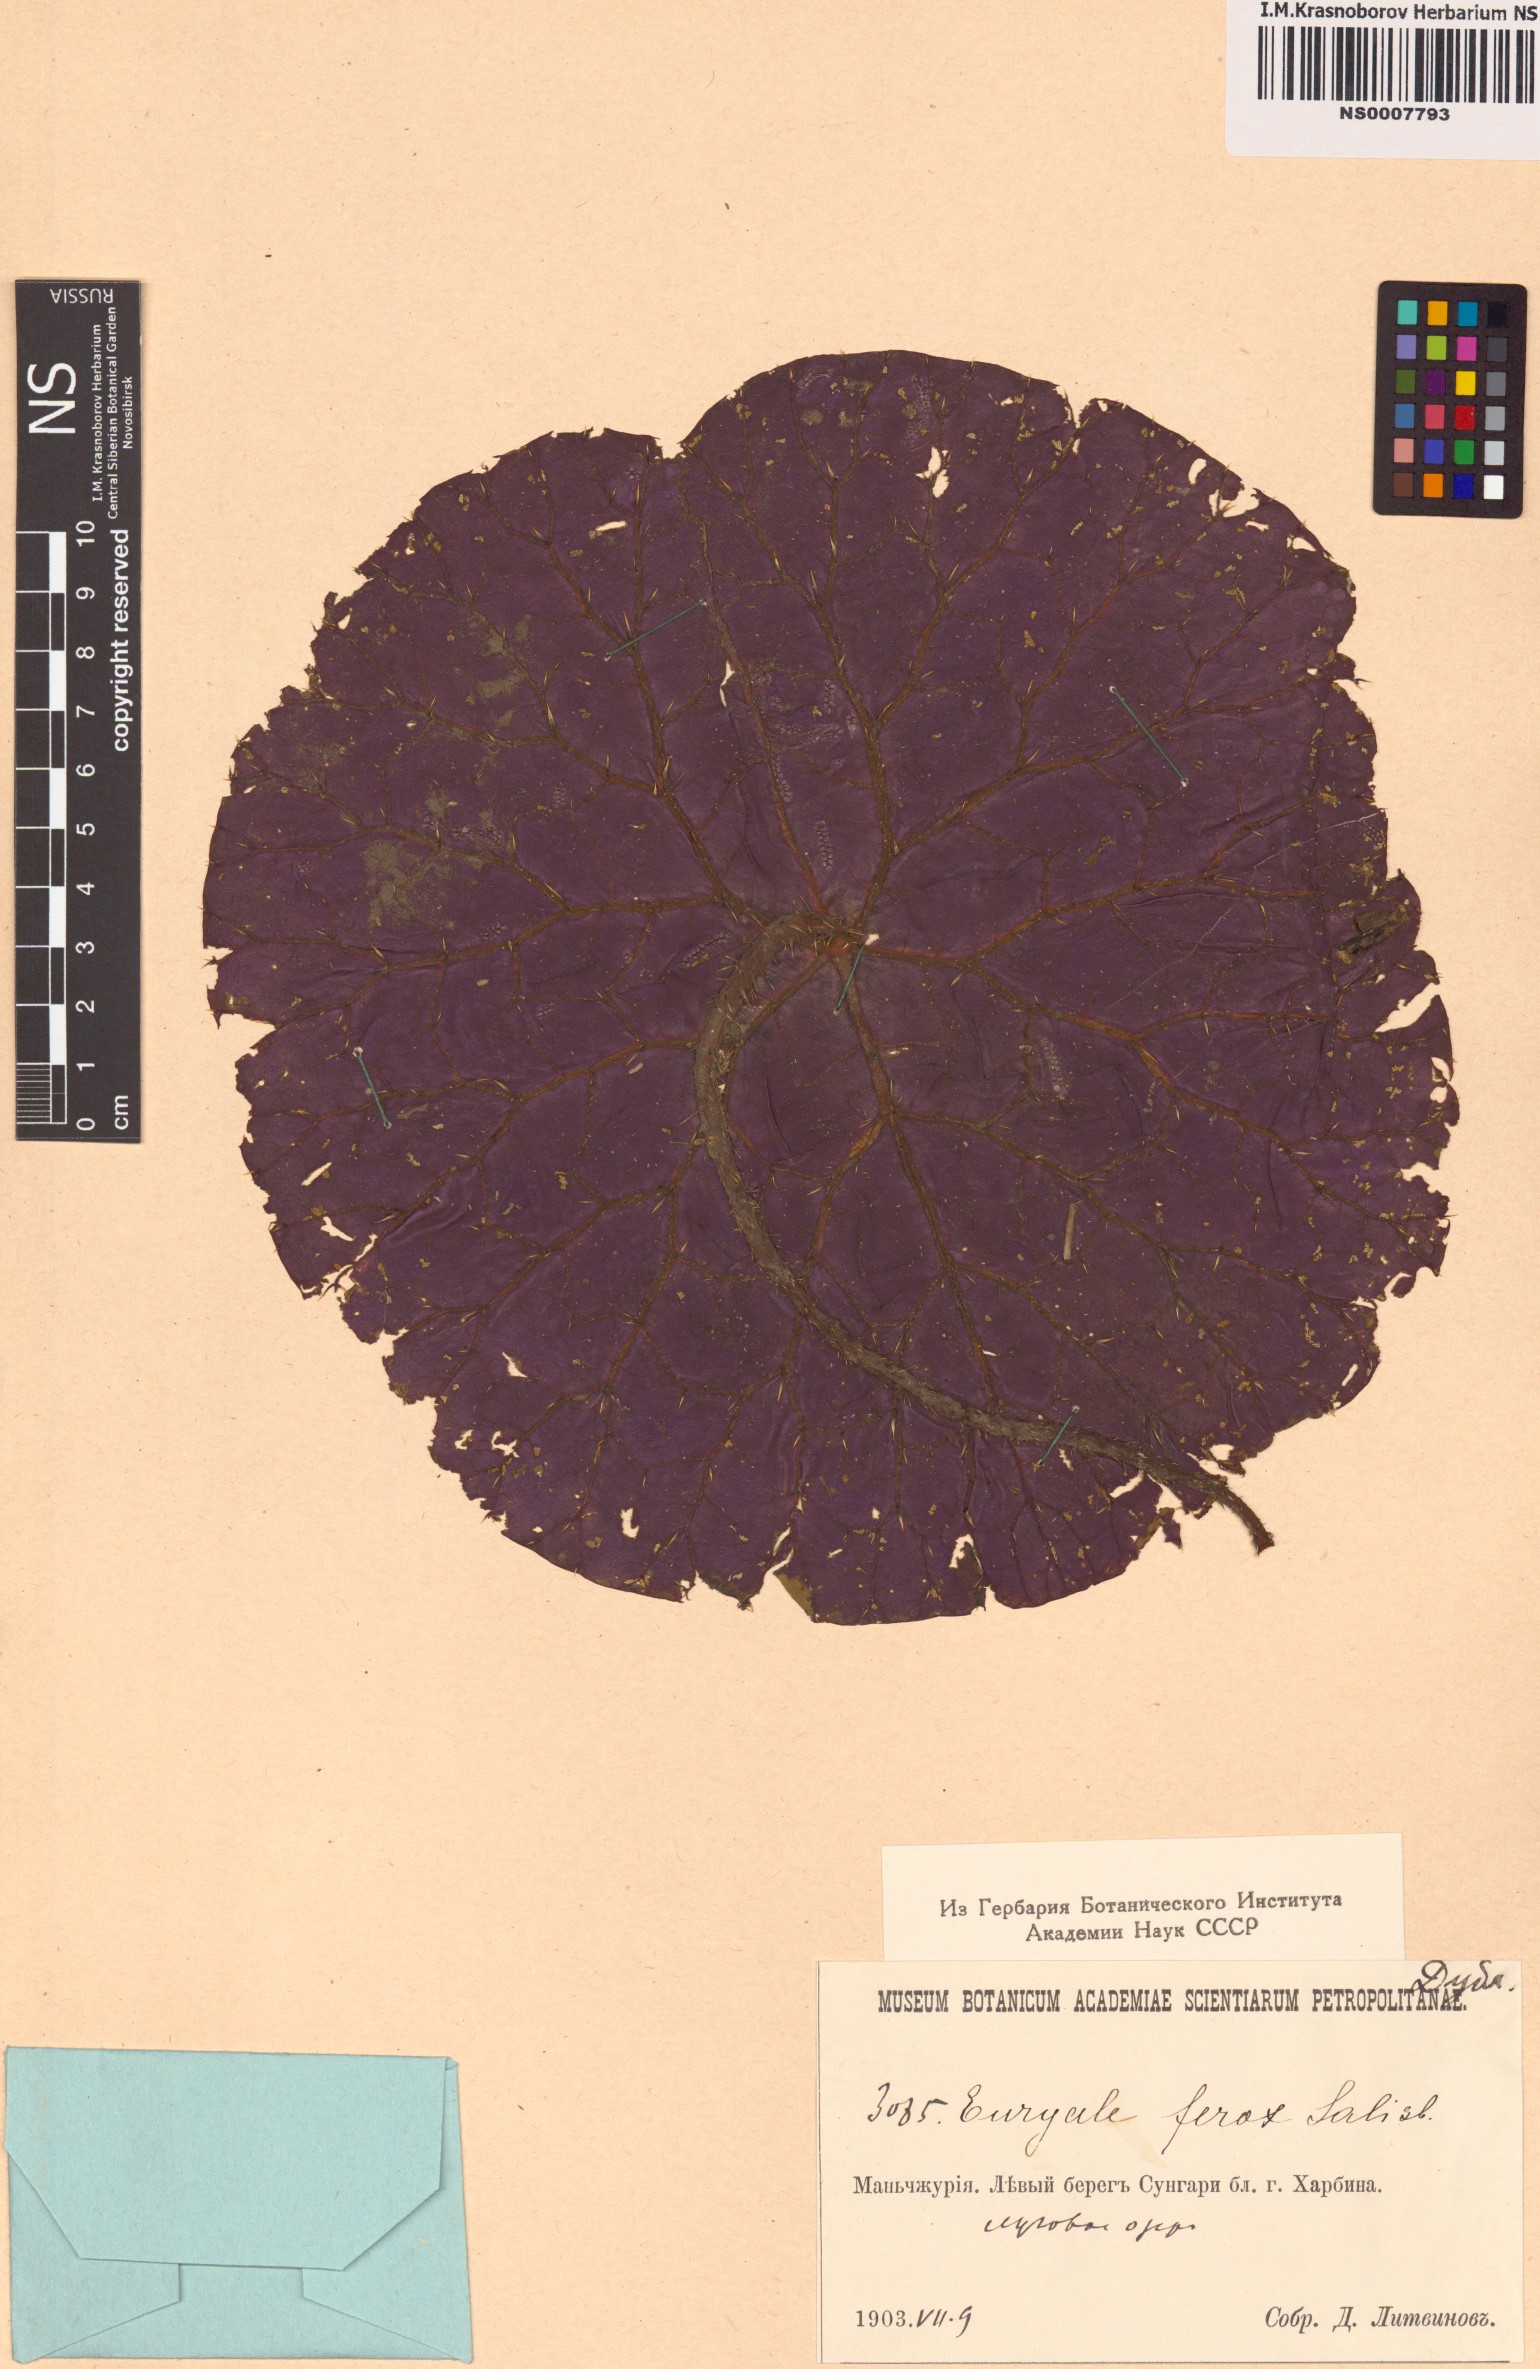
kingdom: Plantae
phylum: Tracheophyta
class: Magnoliopsida
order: Nymphaeales
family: Nymphaeaceae
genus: Euryale
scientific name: Euryale ferox
